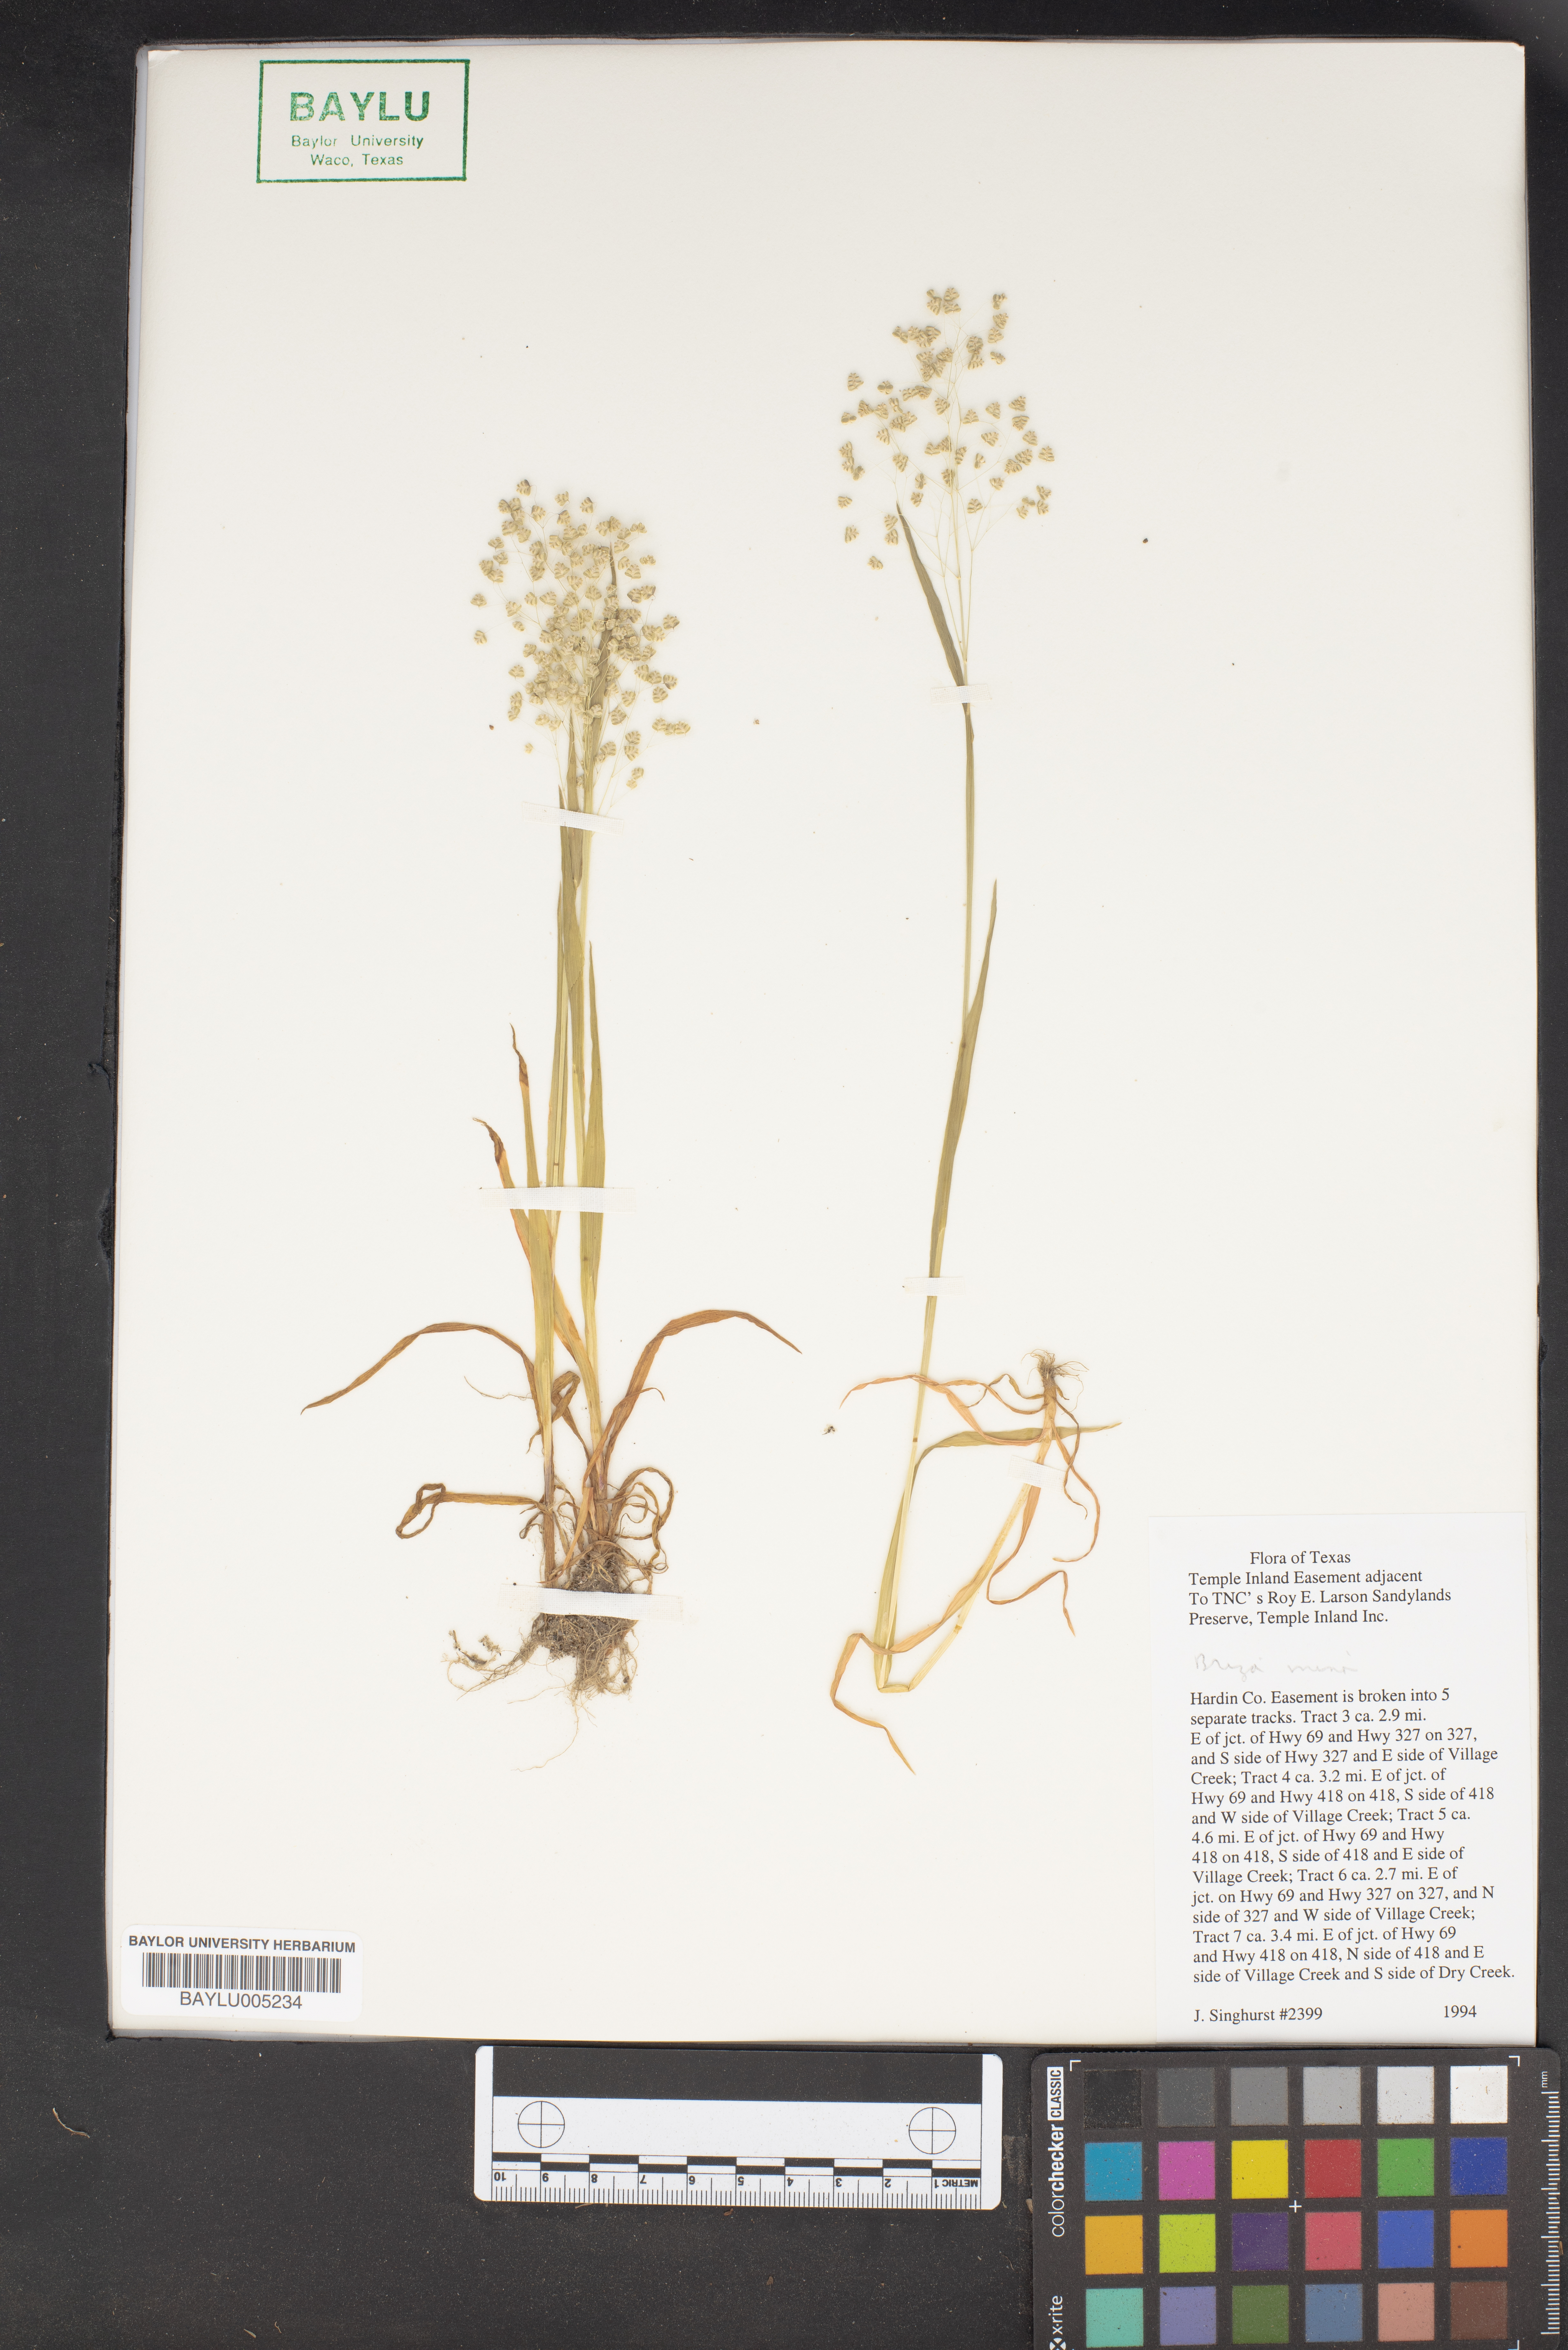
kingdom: Plantae
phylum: Tracheophyta
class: Liliopsida
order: Poales
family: Poaceae
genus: Briza
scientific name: Briza minor
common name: Lesser quaking-grass
